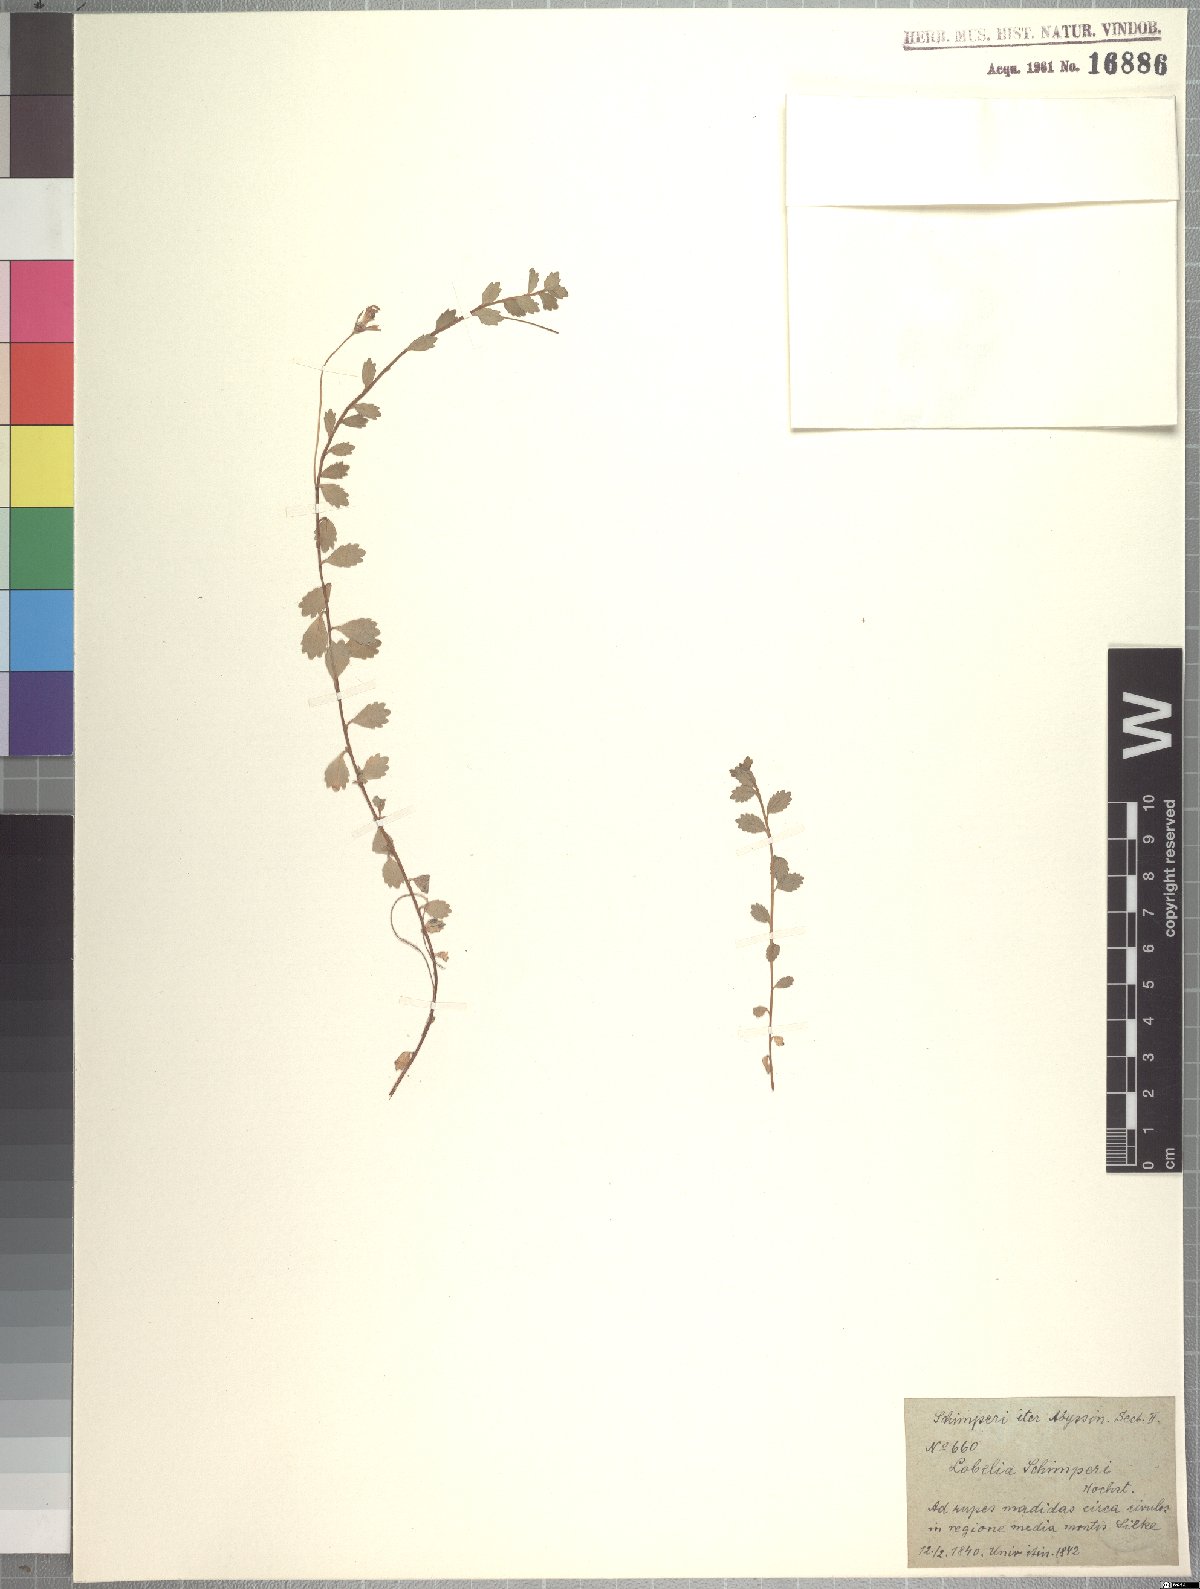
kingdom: Plantae
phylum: Tracheophyta
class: Magnoliopsida
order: Asterales
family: Campanulaceae
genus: Lobelia
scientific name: Lobelia schimperi
